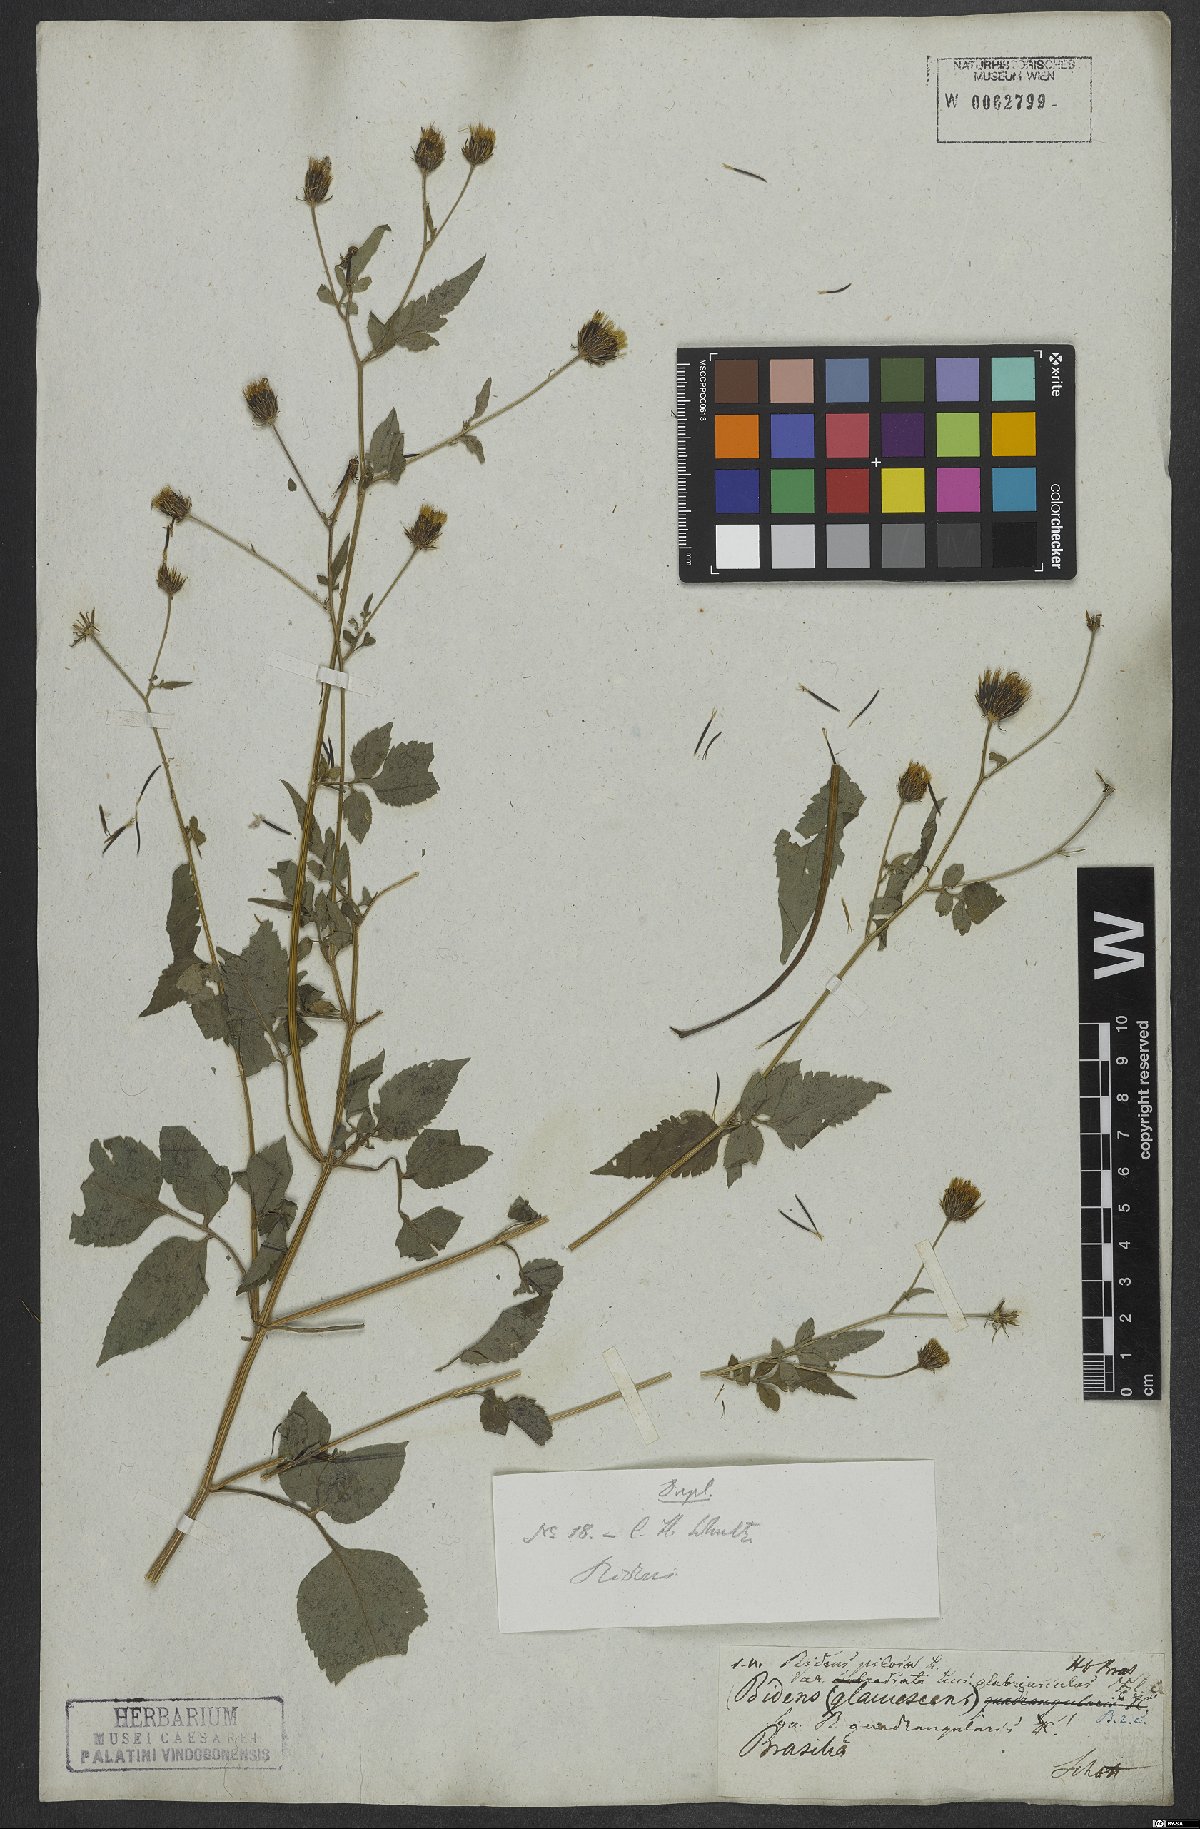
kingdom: Plantae
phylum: Tracheophyta
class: Magnoliopsida
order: Asterales
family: Asteraceae
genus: Bidens
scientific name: Bidens pilosa
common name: Black-jack
